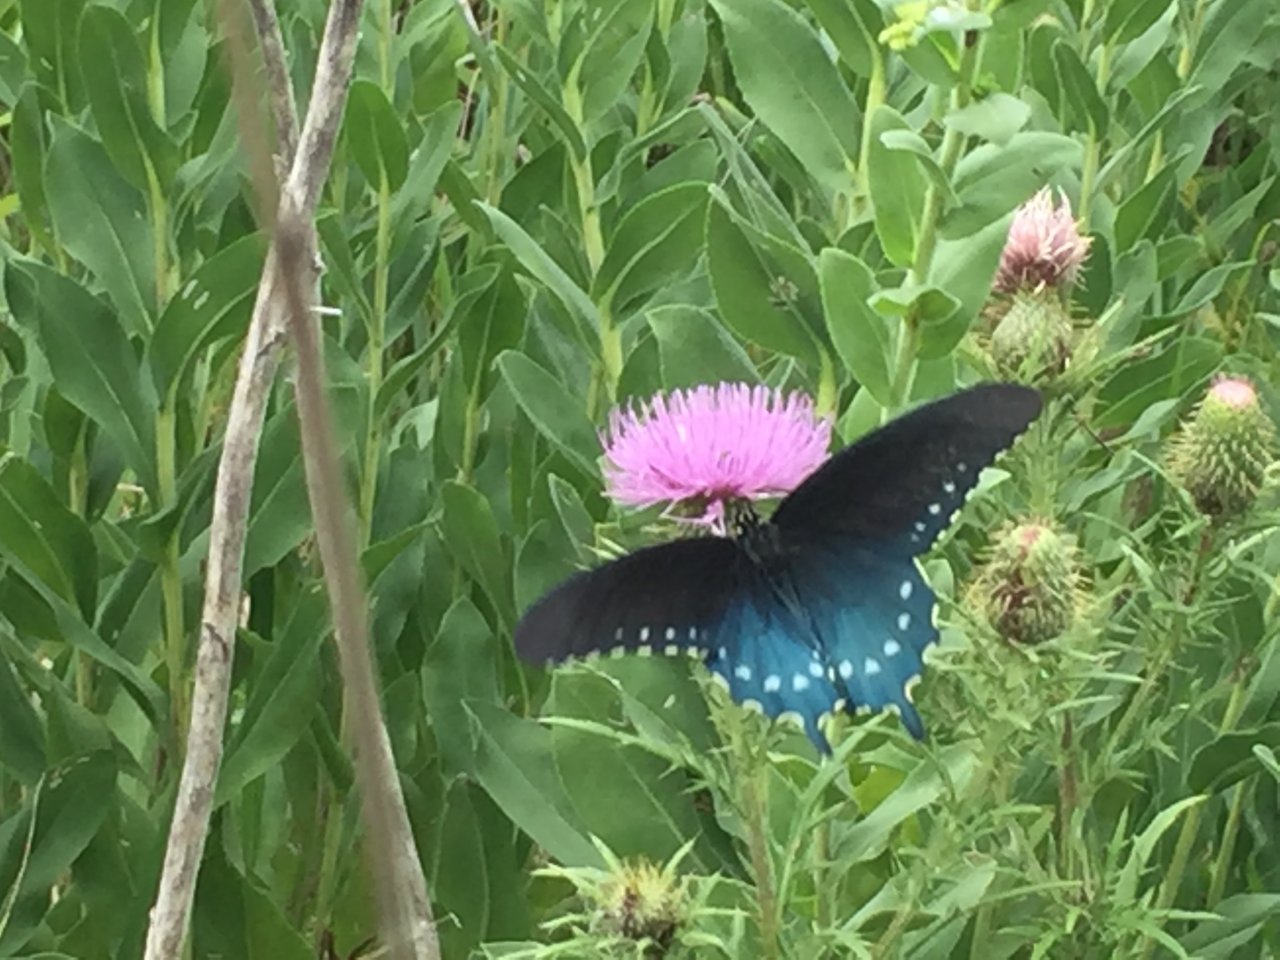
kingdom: Animalia
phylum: Arthropoda
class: Insecta
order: Lepidoptera
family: Papilionidae
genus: Battus
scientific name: Battus philenor
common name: Pipevine Swallowtail
